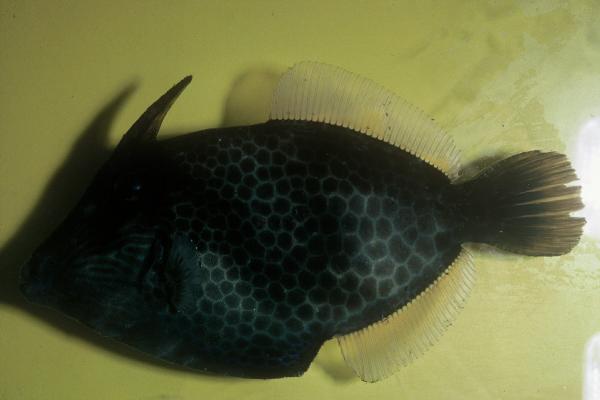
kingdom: Animalia
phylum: Chordata
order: Tetraodontiformes
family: Monacanthidae
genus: Cantherhines
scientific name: Cantherhines pardalis
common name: Honeycomb filefish
